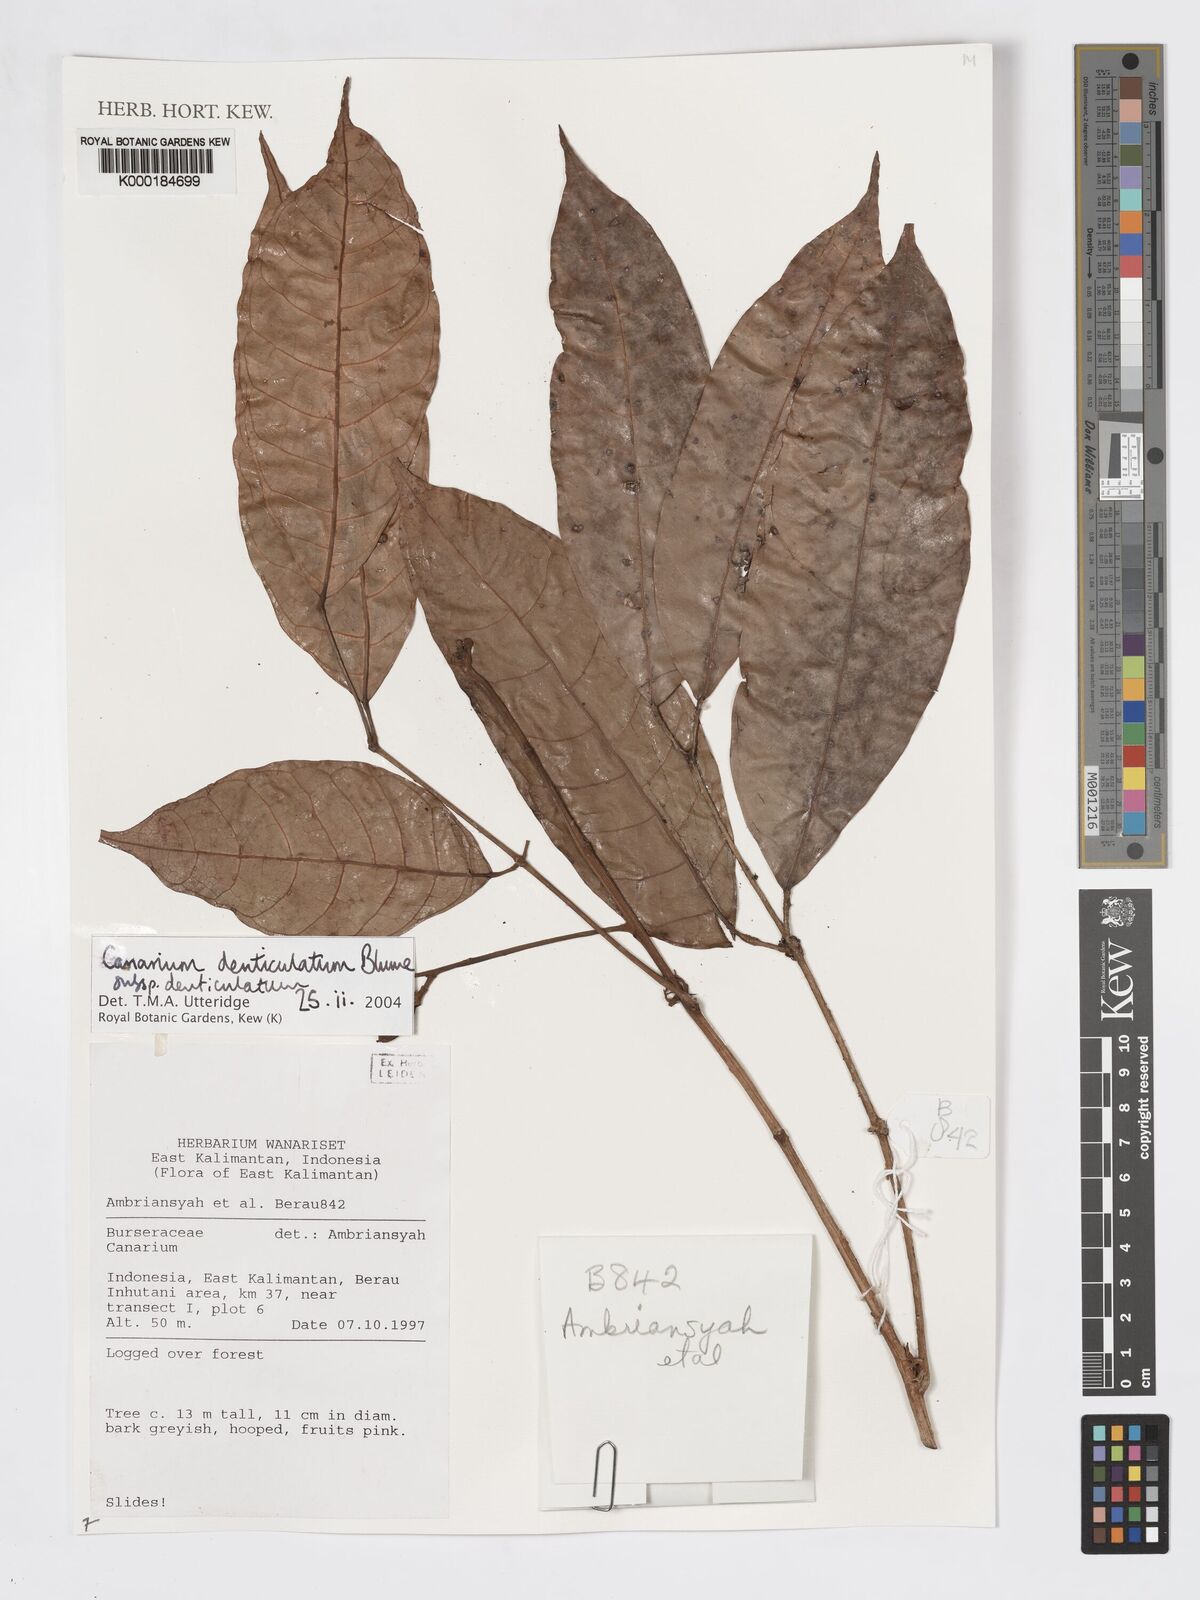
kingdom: Plantae
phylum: Tracheophyta
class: Magnoliopsida
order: Sapindales
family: Burseraceae
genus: Canarium
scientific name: Canarium denticulatum
